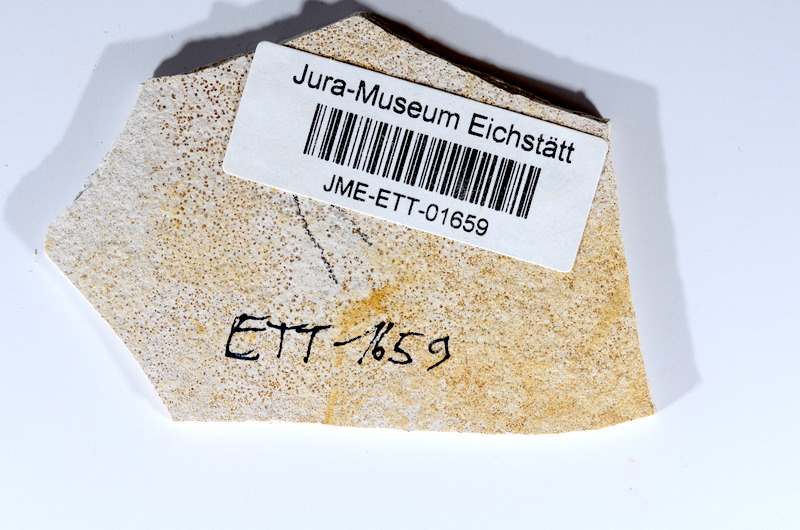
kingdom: Animalia
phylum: Chordata
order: Salmoniformes
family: Orthogonikleithridae
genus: Orthogonikleithrus
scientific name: Orthogonikleithrus hoelli
